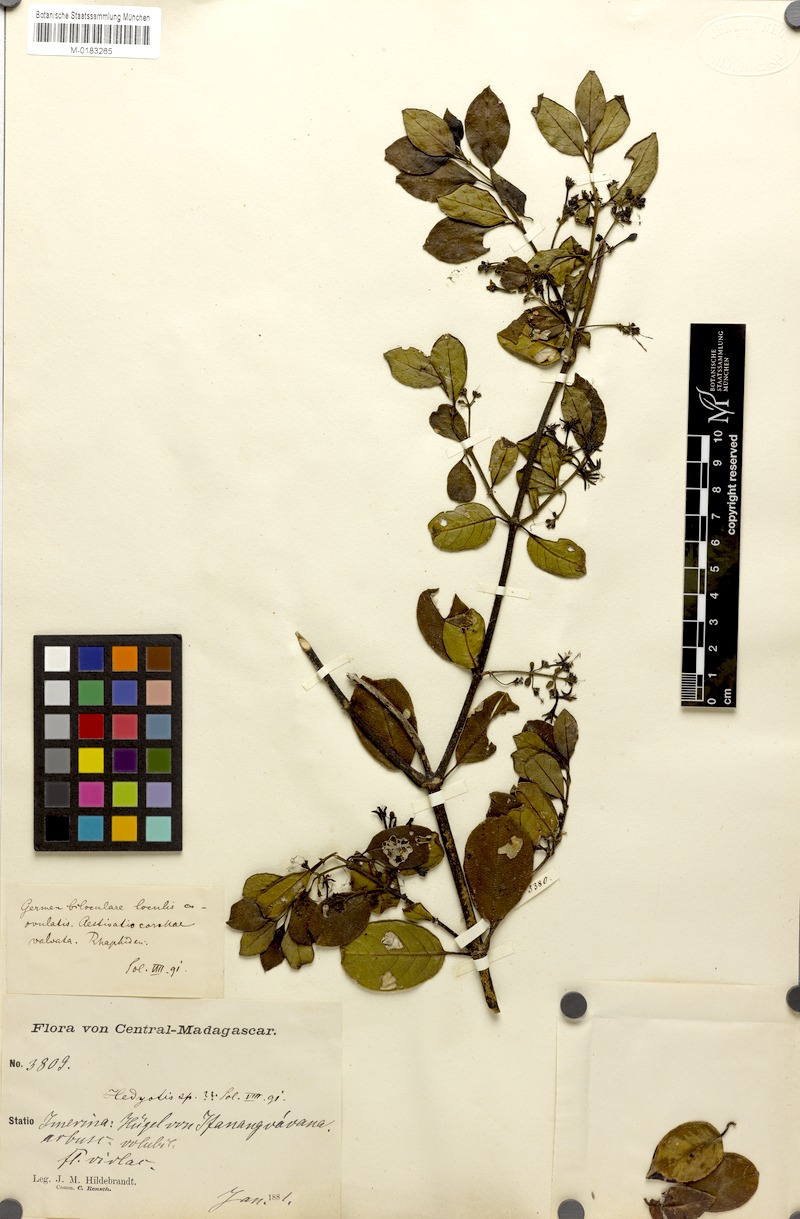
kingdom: Plantae
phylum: Tracheophyta
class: Magnoliopsida
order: Gentianales
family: Rubiaceae
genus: Danais
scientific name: Danais pubescens
